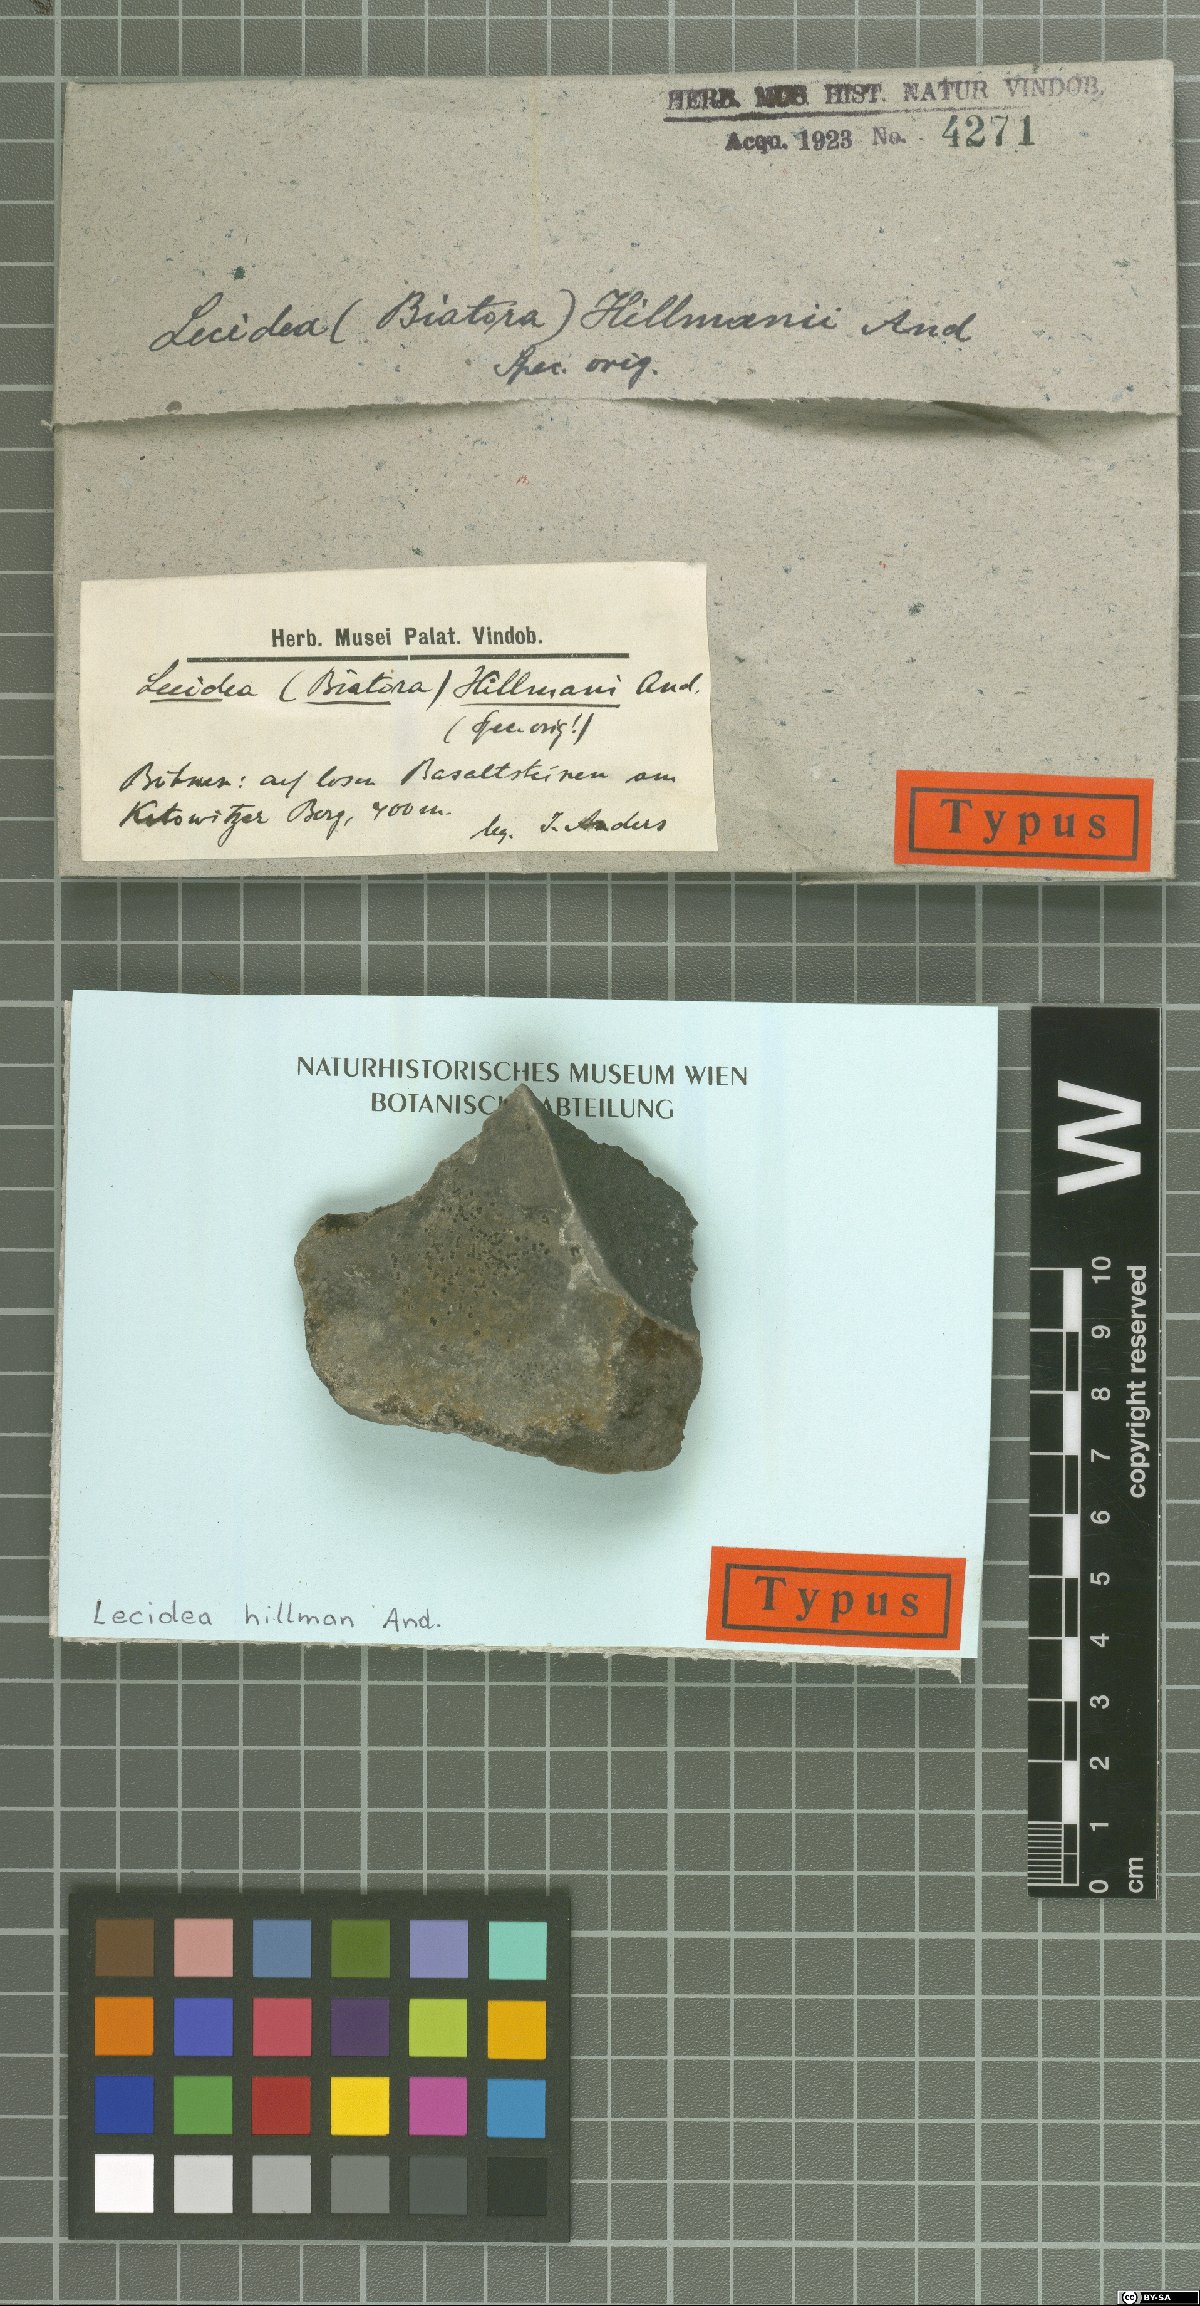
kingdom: Fungi
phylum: Ascomycota
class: Lecanoromycetes
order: Lecideales
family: Lecideaceae
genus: Lecidea
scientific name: Lecidea
